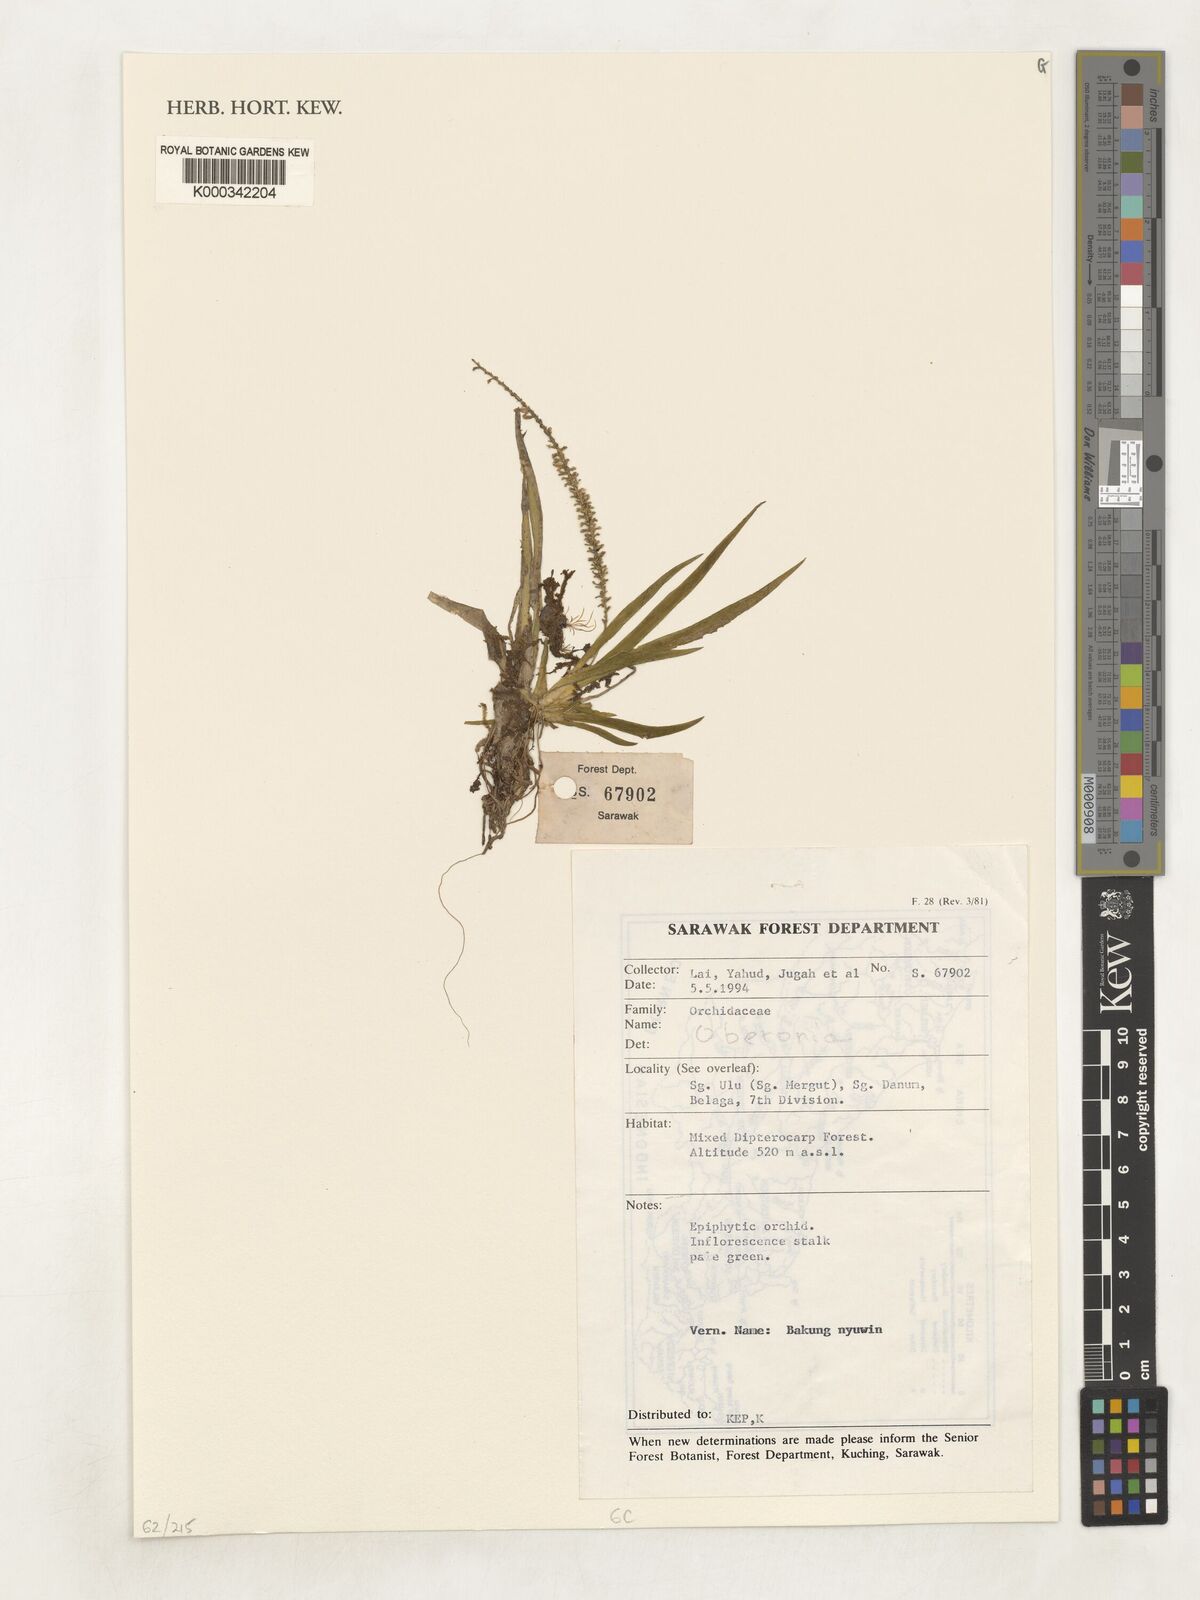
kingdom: Plantae
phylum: Tracheophyta
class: Liliopsida
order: Asparagales
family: Orchidaceae
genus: Oberonia
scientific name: Oberonia
